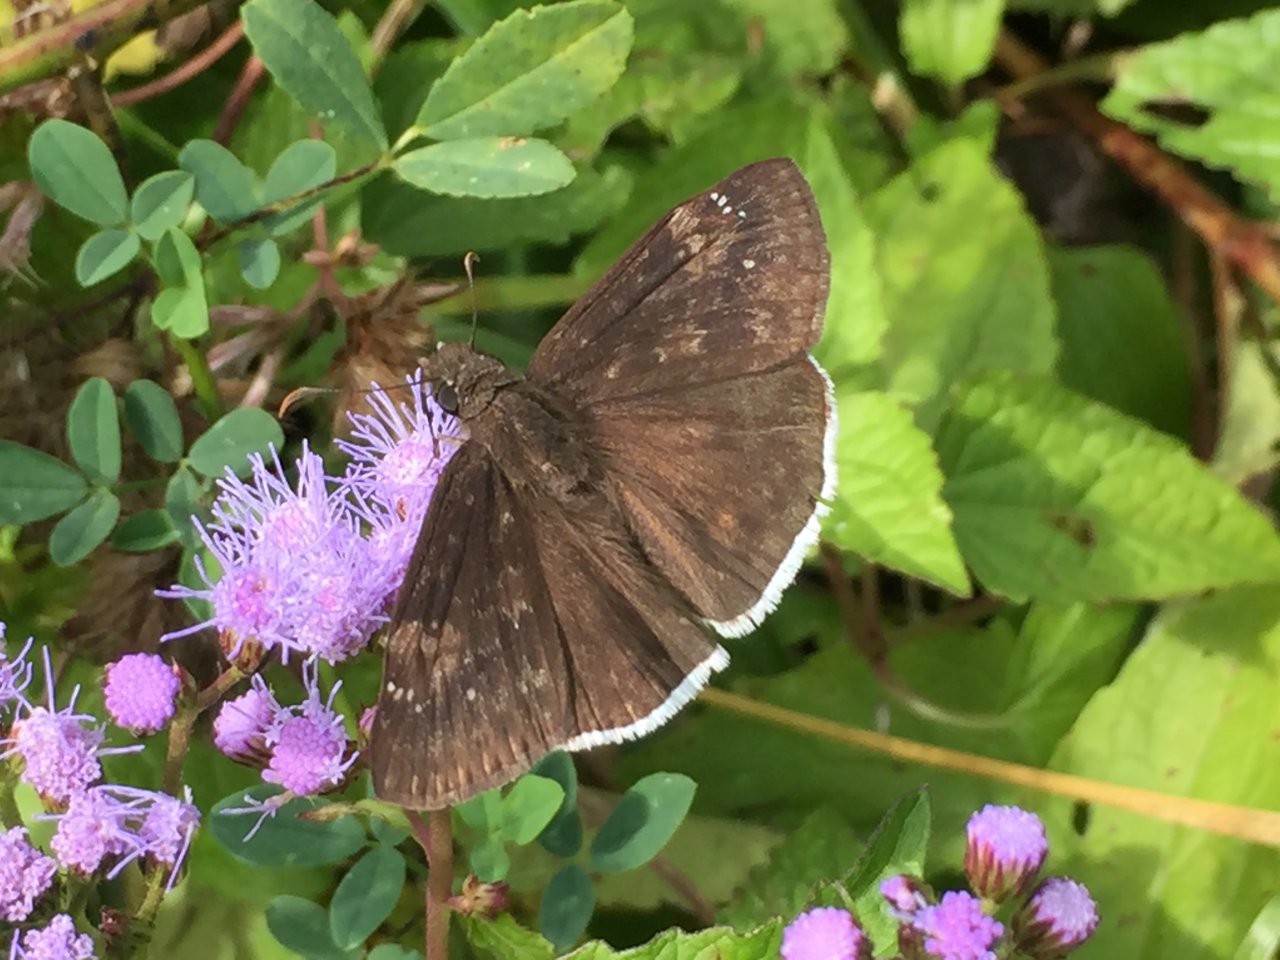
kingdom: Animalia
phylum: Arthropoda
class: Insecta
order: Lepidoptera
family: Hesperiidae
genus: Erynnis
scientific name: Erynnis funeralis
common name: Funereal Duskywing
